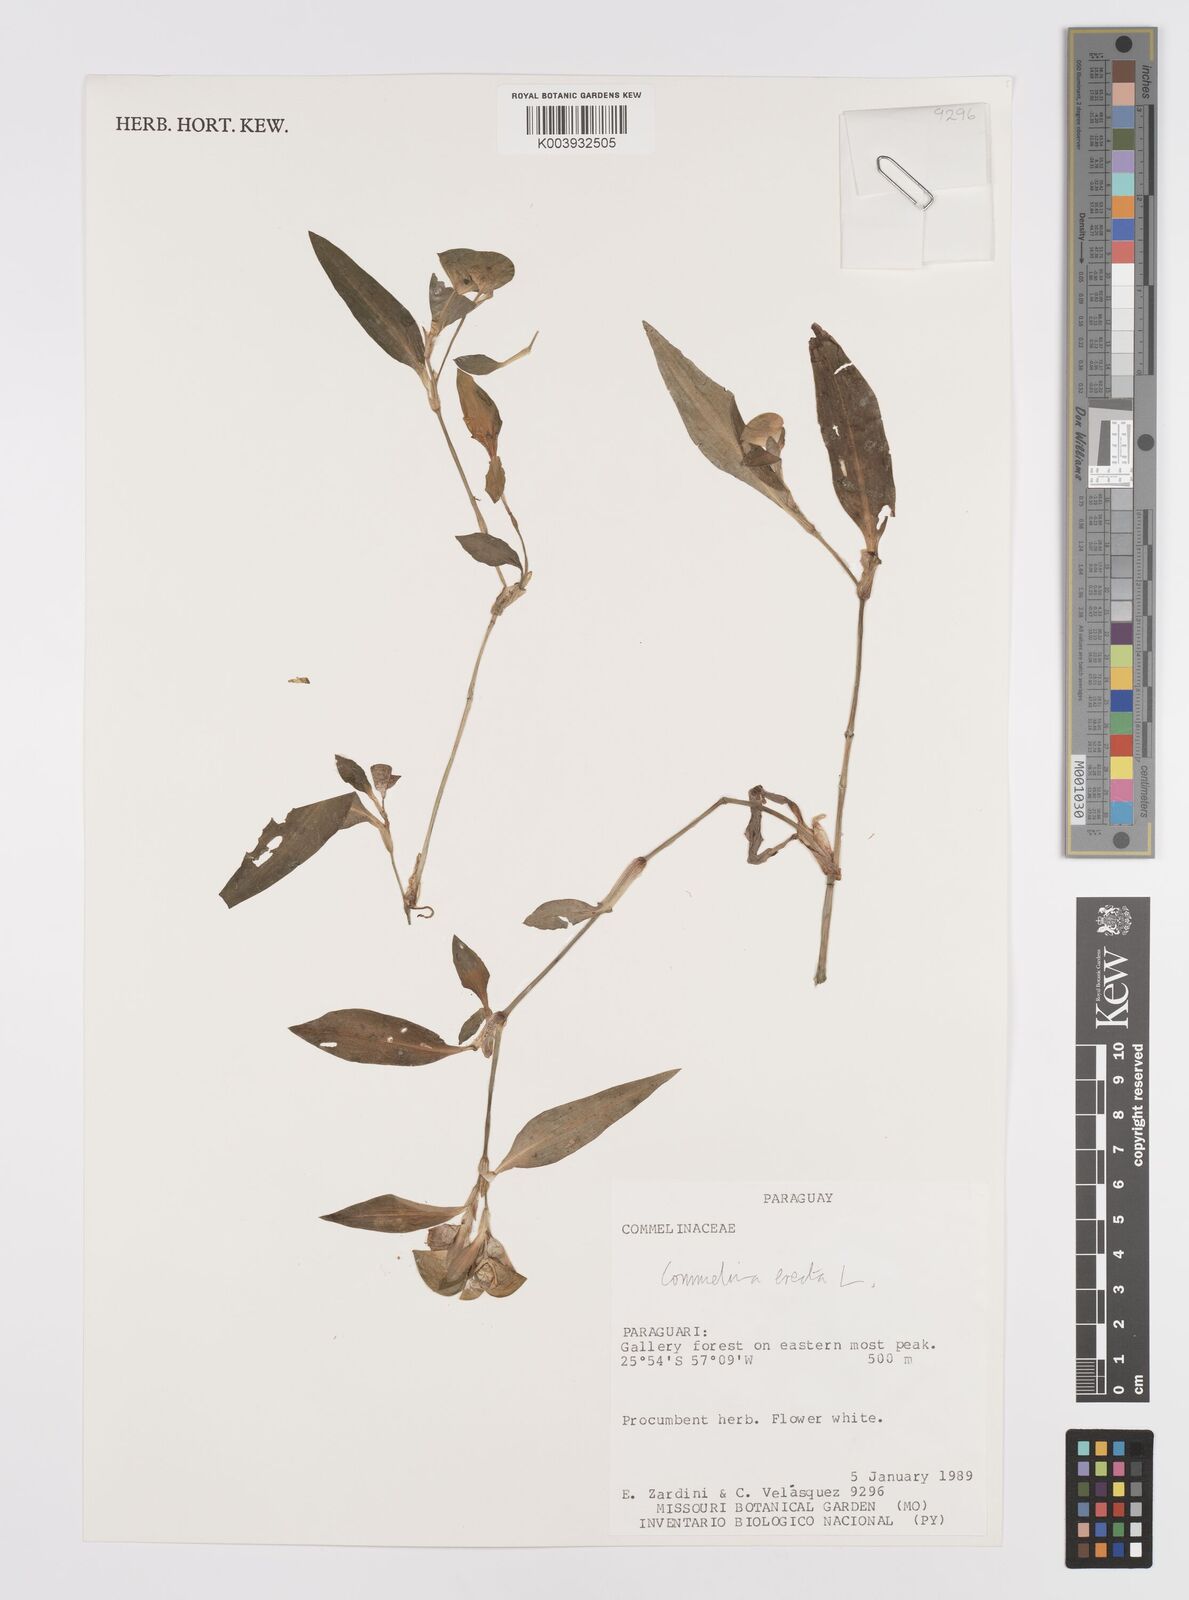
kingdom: Plantae
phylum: Tracheophyta
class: Liliopsida
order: Commelinales
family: Commelinaceae
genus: Commelina
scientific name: Commelina erecta
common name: Blousel blommetjie
